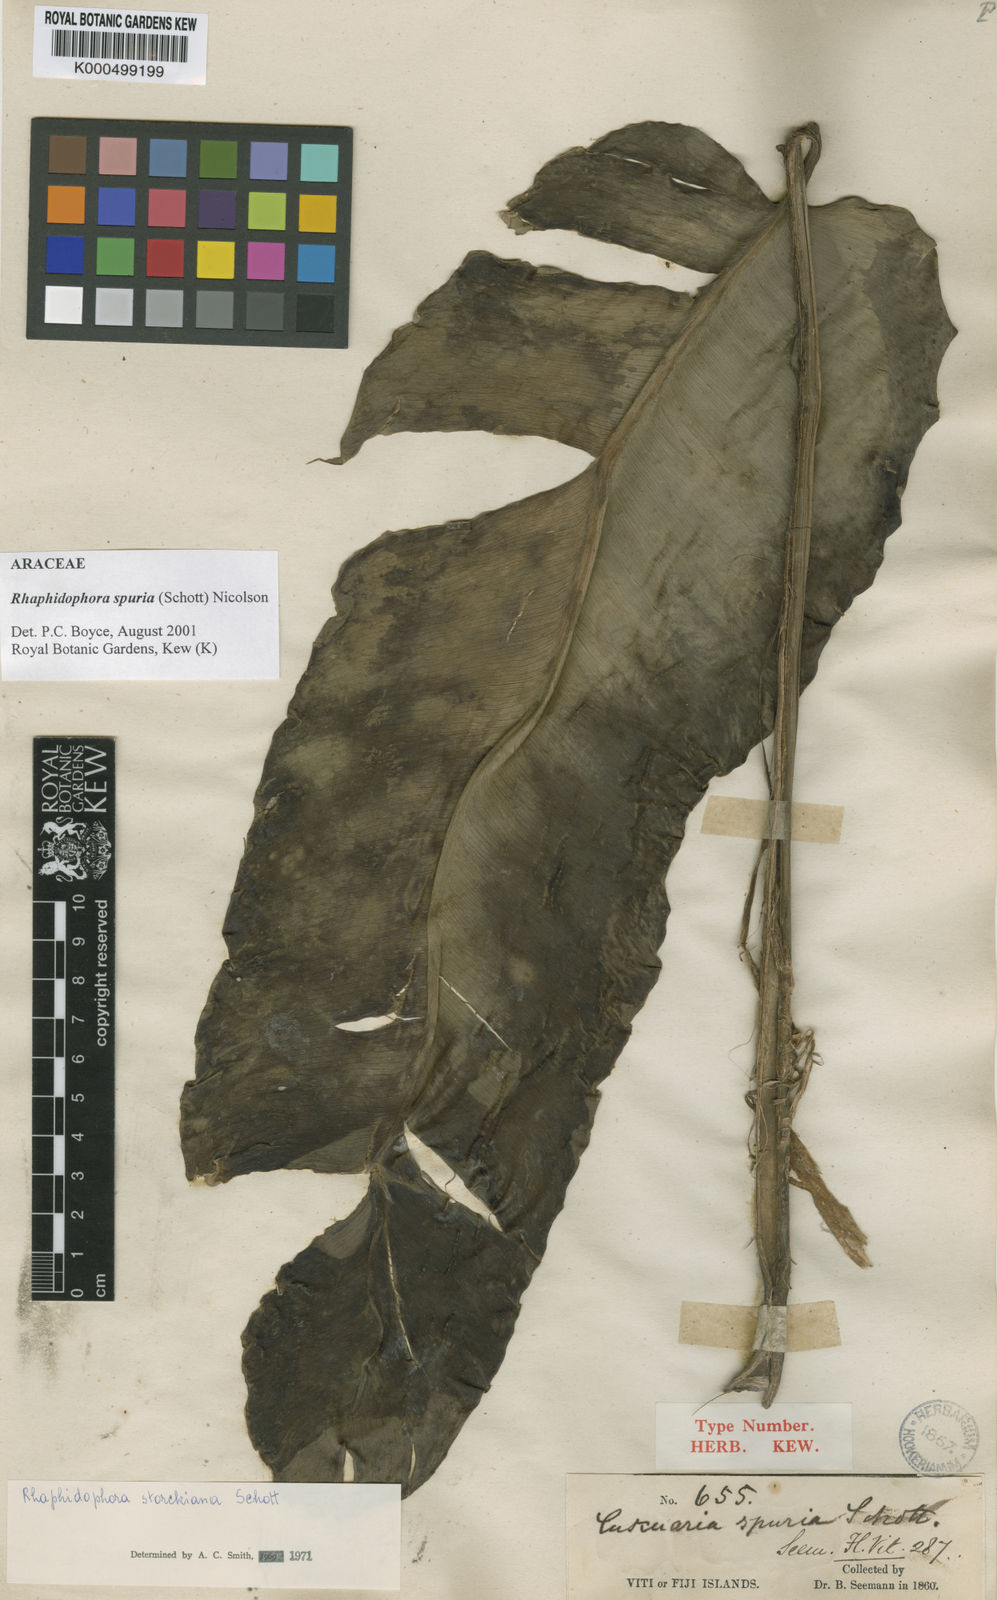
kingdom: Plantae
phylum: Tracheophyta
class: Liliopsida
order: Alismatales
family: Araceae
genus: Rhaphidophora
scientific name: Rhaphidophora spuria
